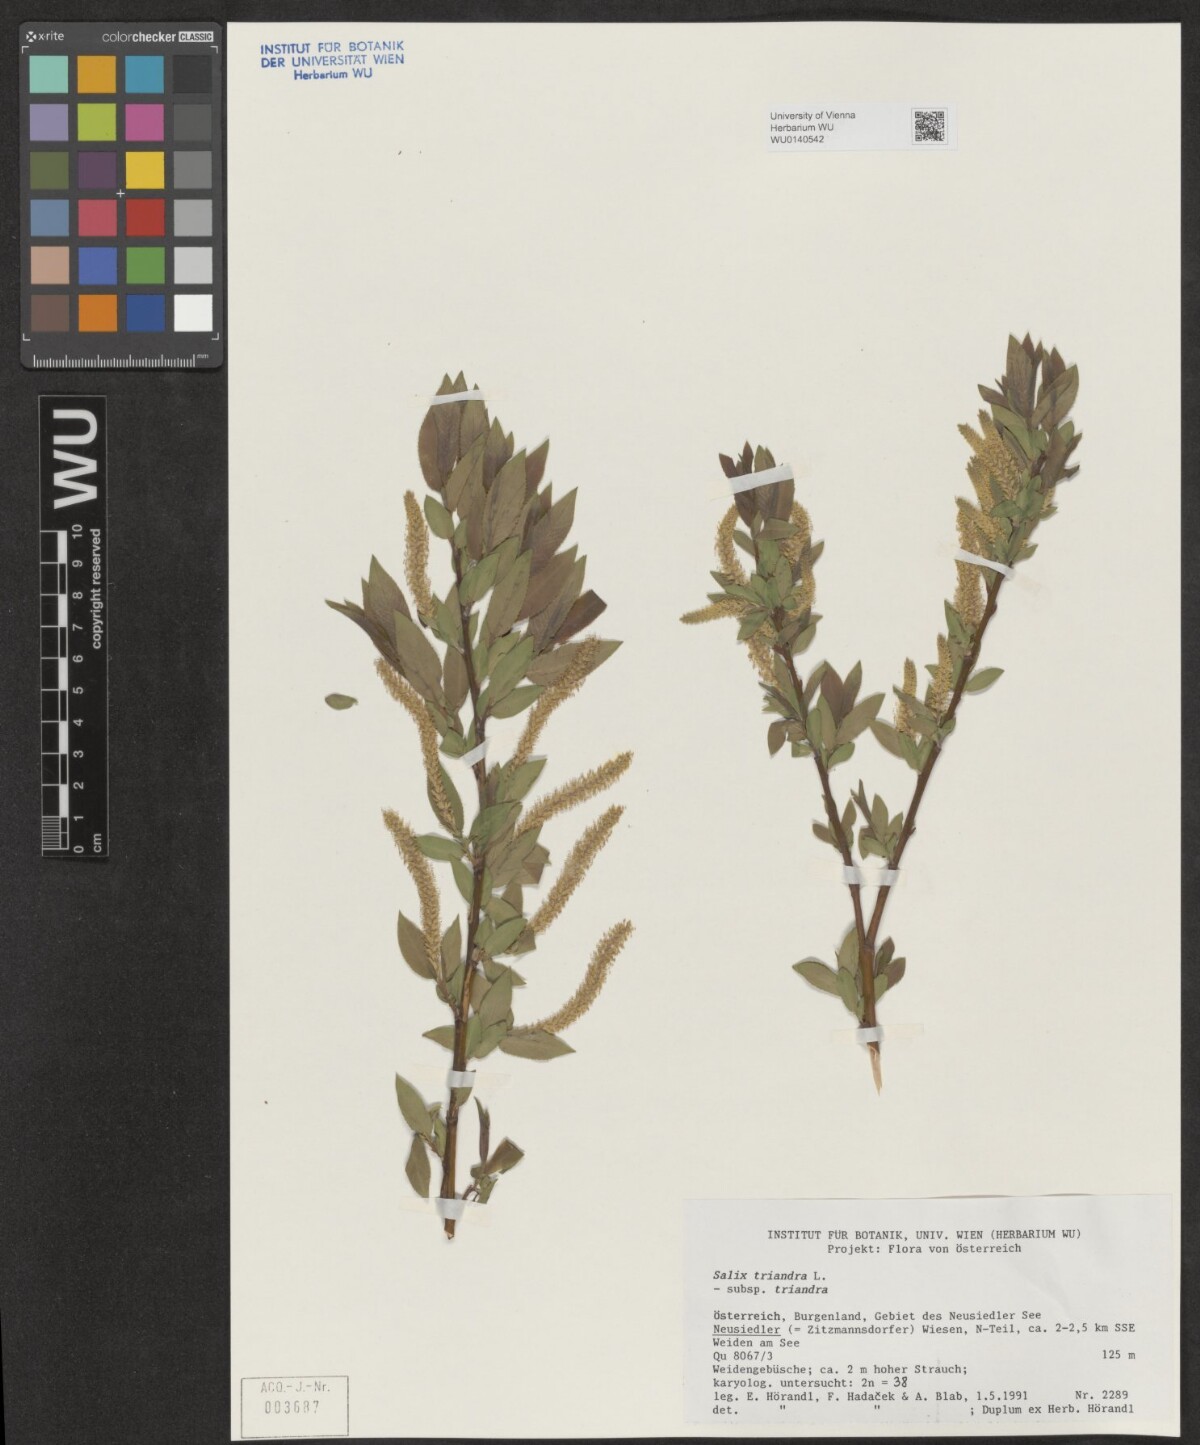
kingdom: Plantae
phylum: Tracheophyta
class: Magnoliopsida
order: Malpighiales
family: Salicaceae
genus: Salix
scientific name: Salix triandra
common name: Almond willow
